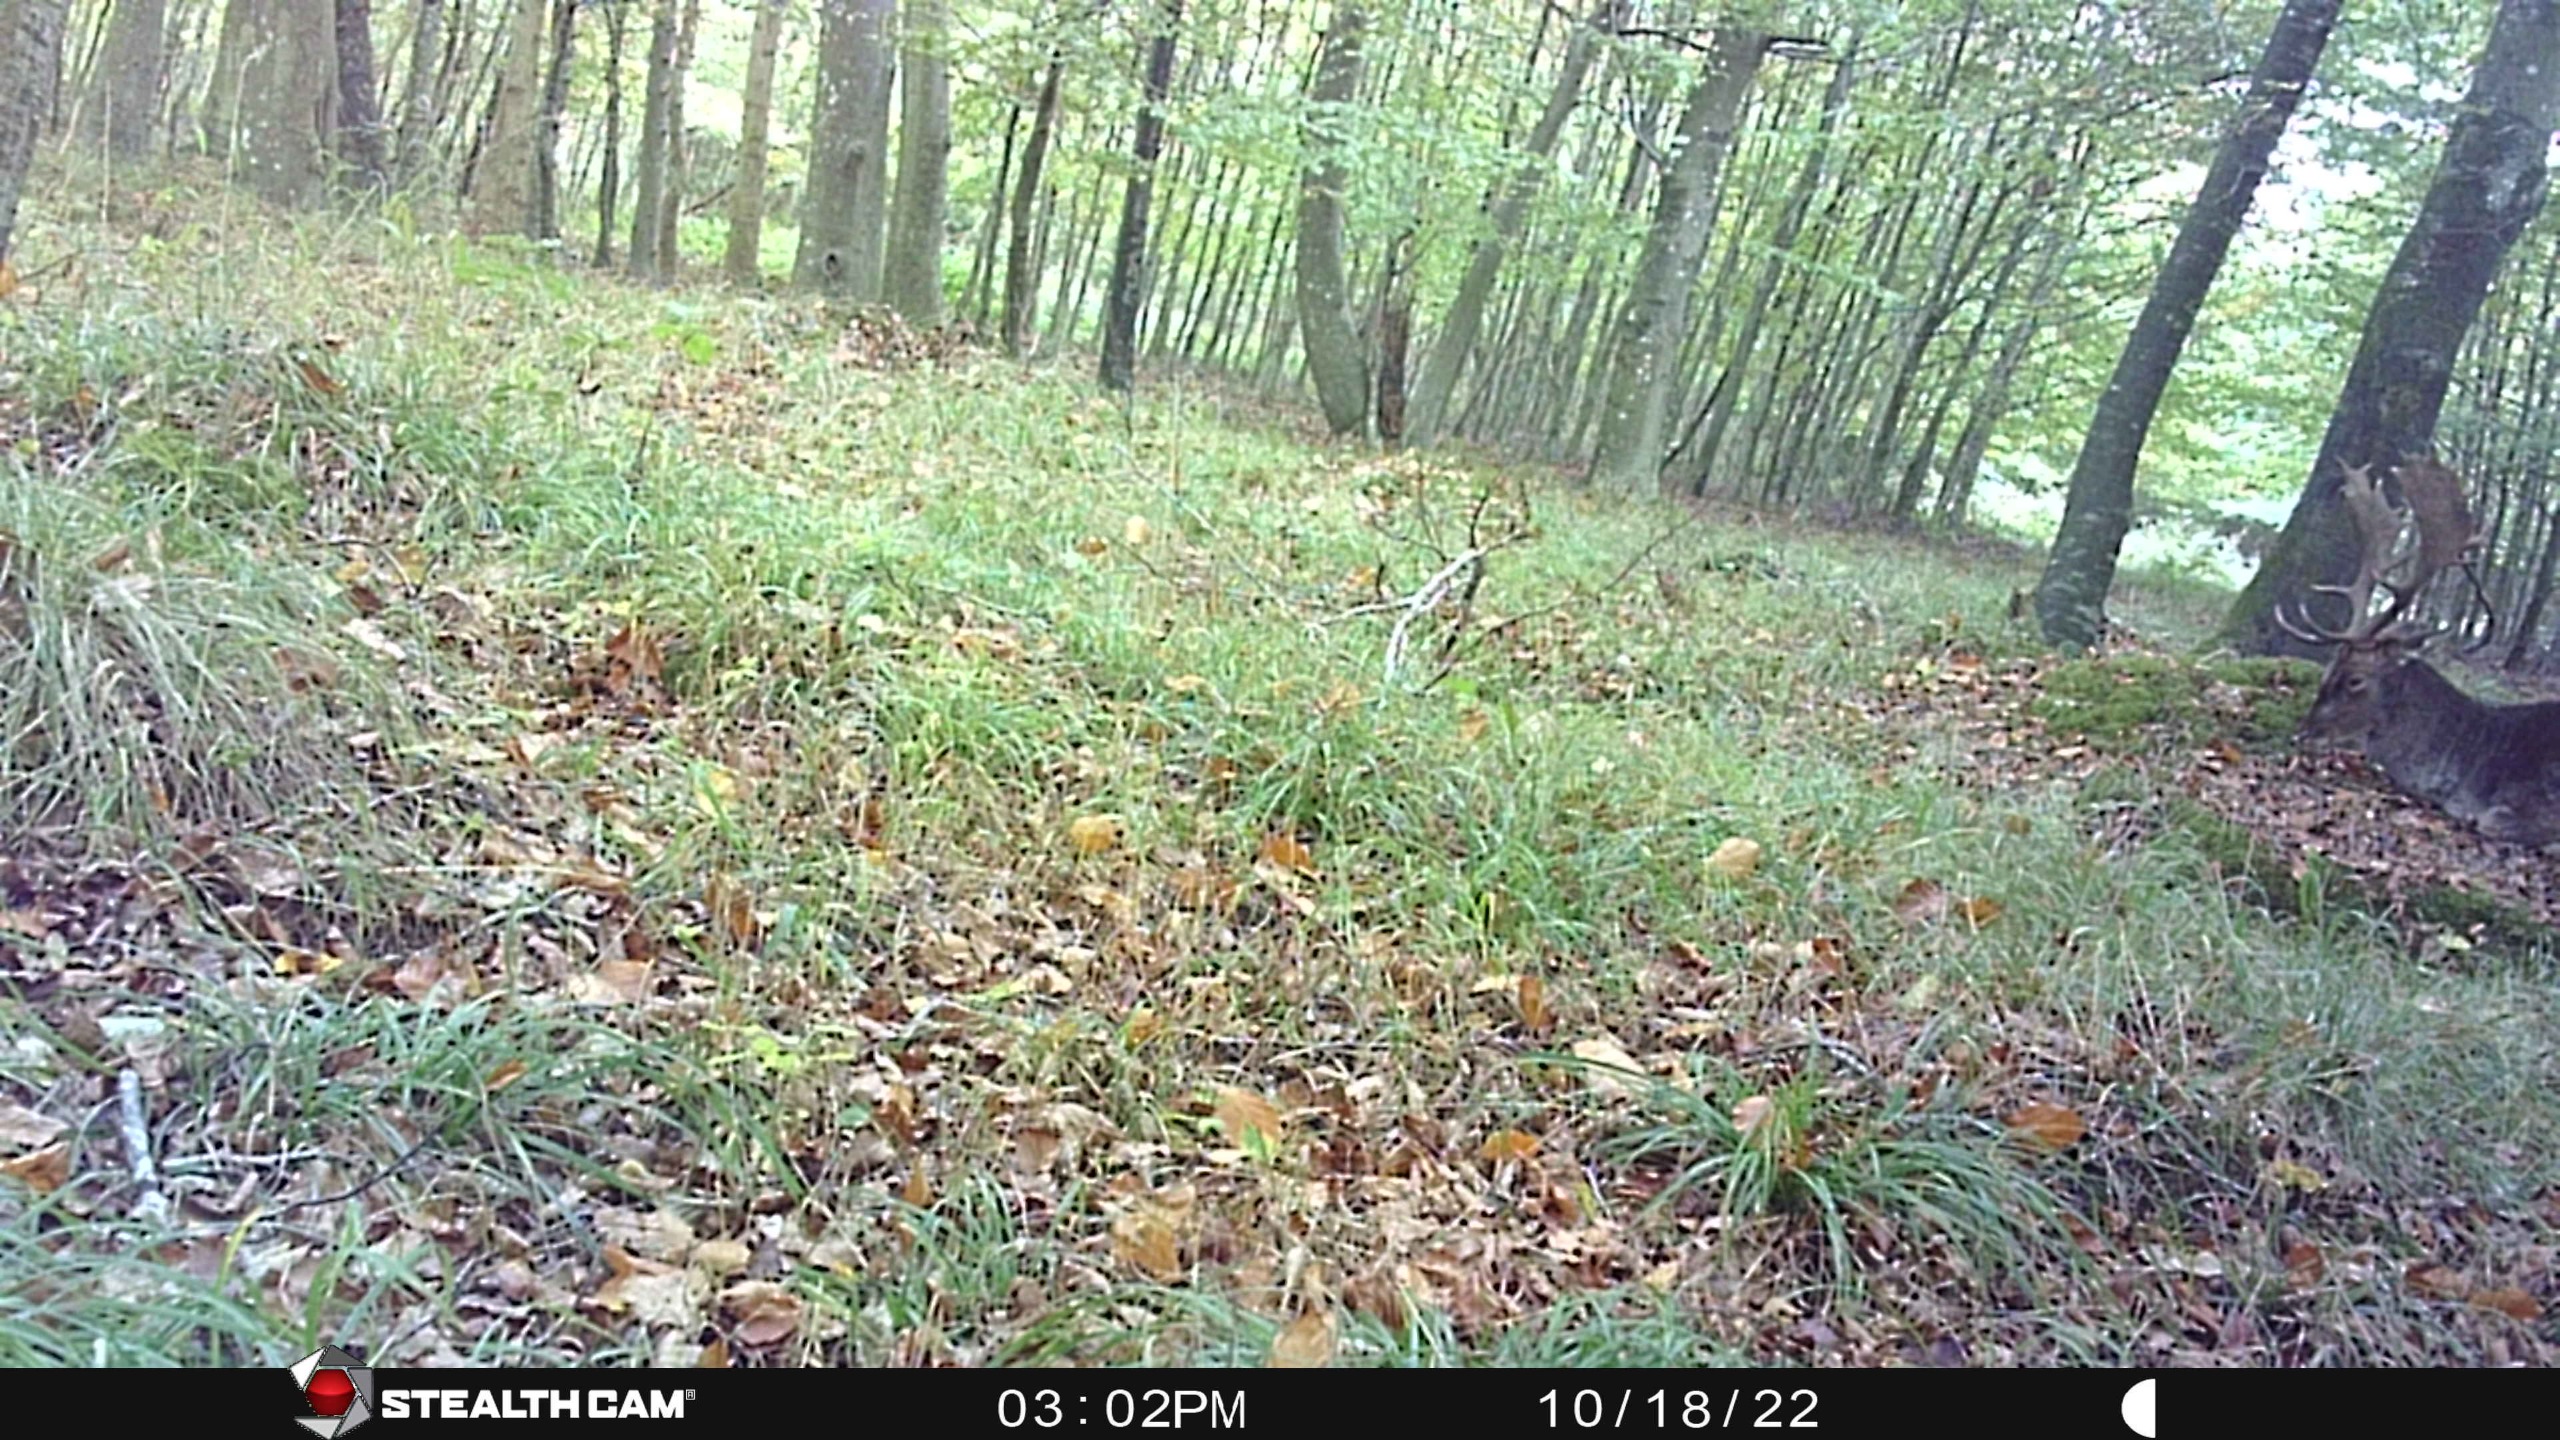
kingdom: Animalia
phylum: Chordata
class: Mammalia
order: Artiodactyla
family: Cervidae
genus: Dama
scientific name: Dama dama
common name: Dådyr
